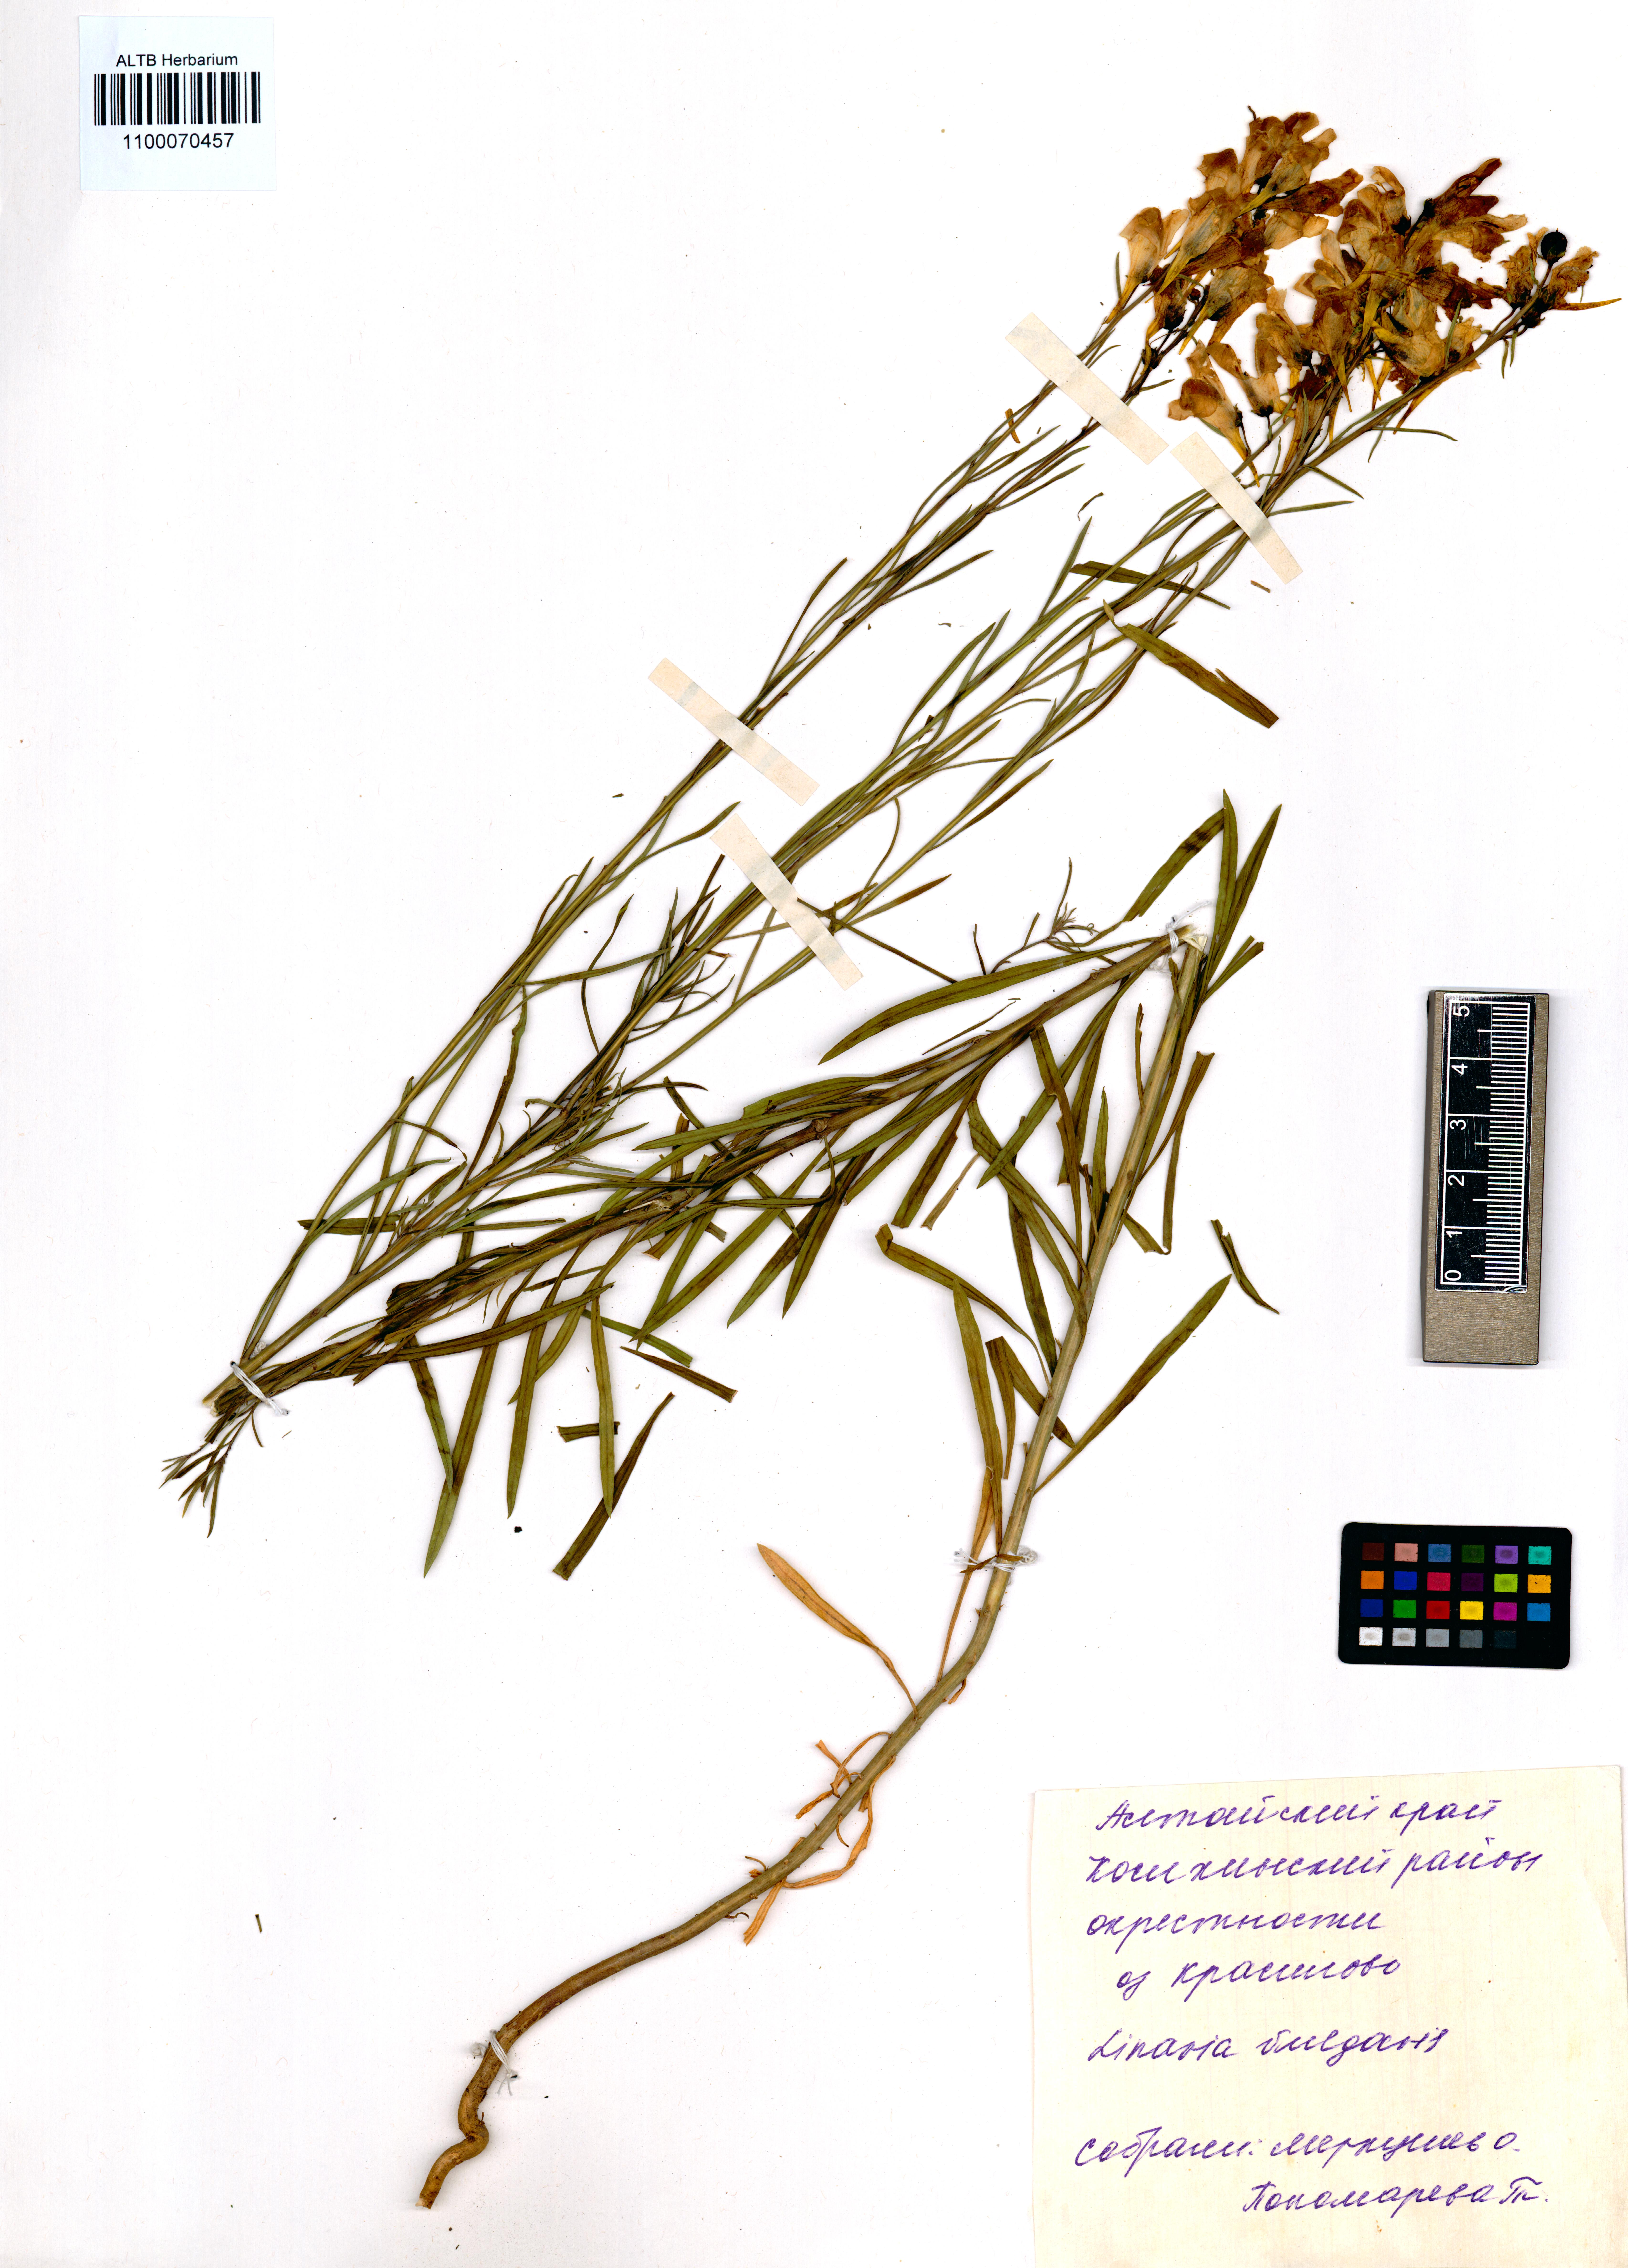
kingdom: Plantae
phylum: Tracheophyta
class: Magnoliopsida
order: Lamiales
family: Plantaginaceae
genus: Linaria
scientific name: Linaria vulgaris
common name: Butter and eggs
